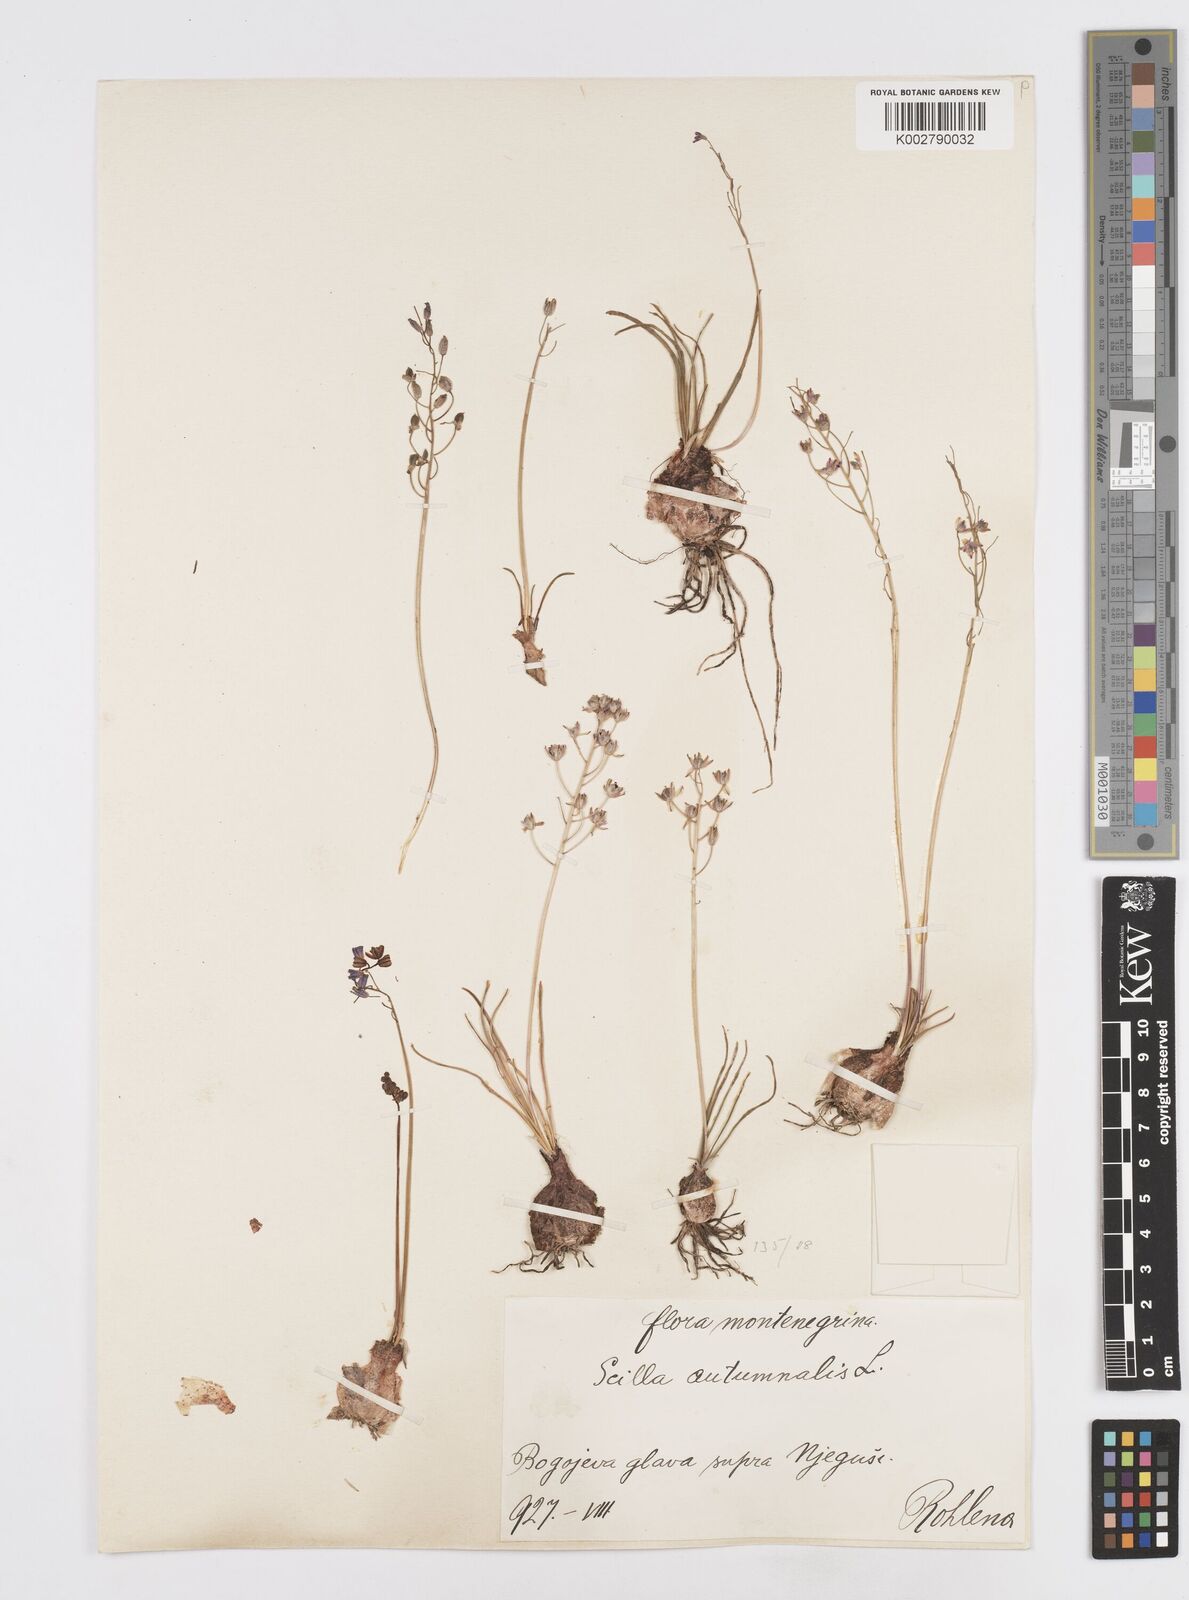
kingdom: Plantae
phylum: Tracheophyta
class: Liliopsida
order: Asparagales
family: Asparagaceae
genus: Prospero
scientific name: Prospero autumnale
